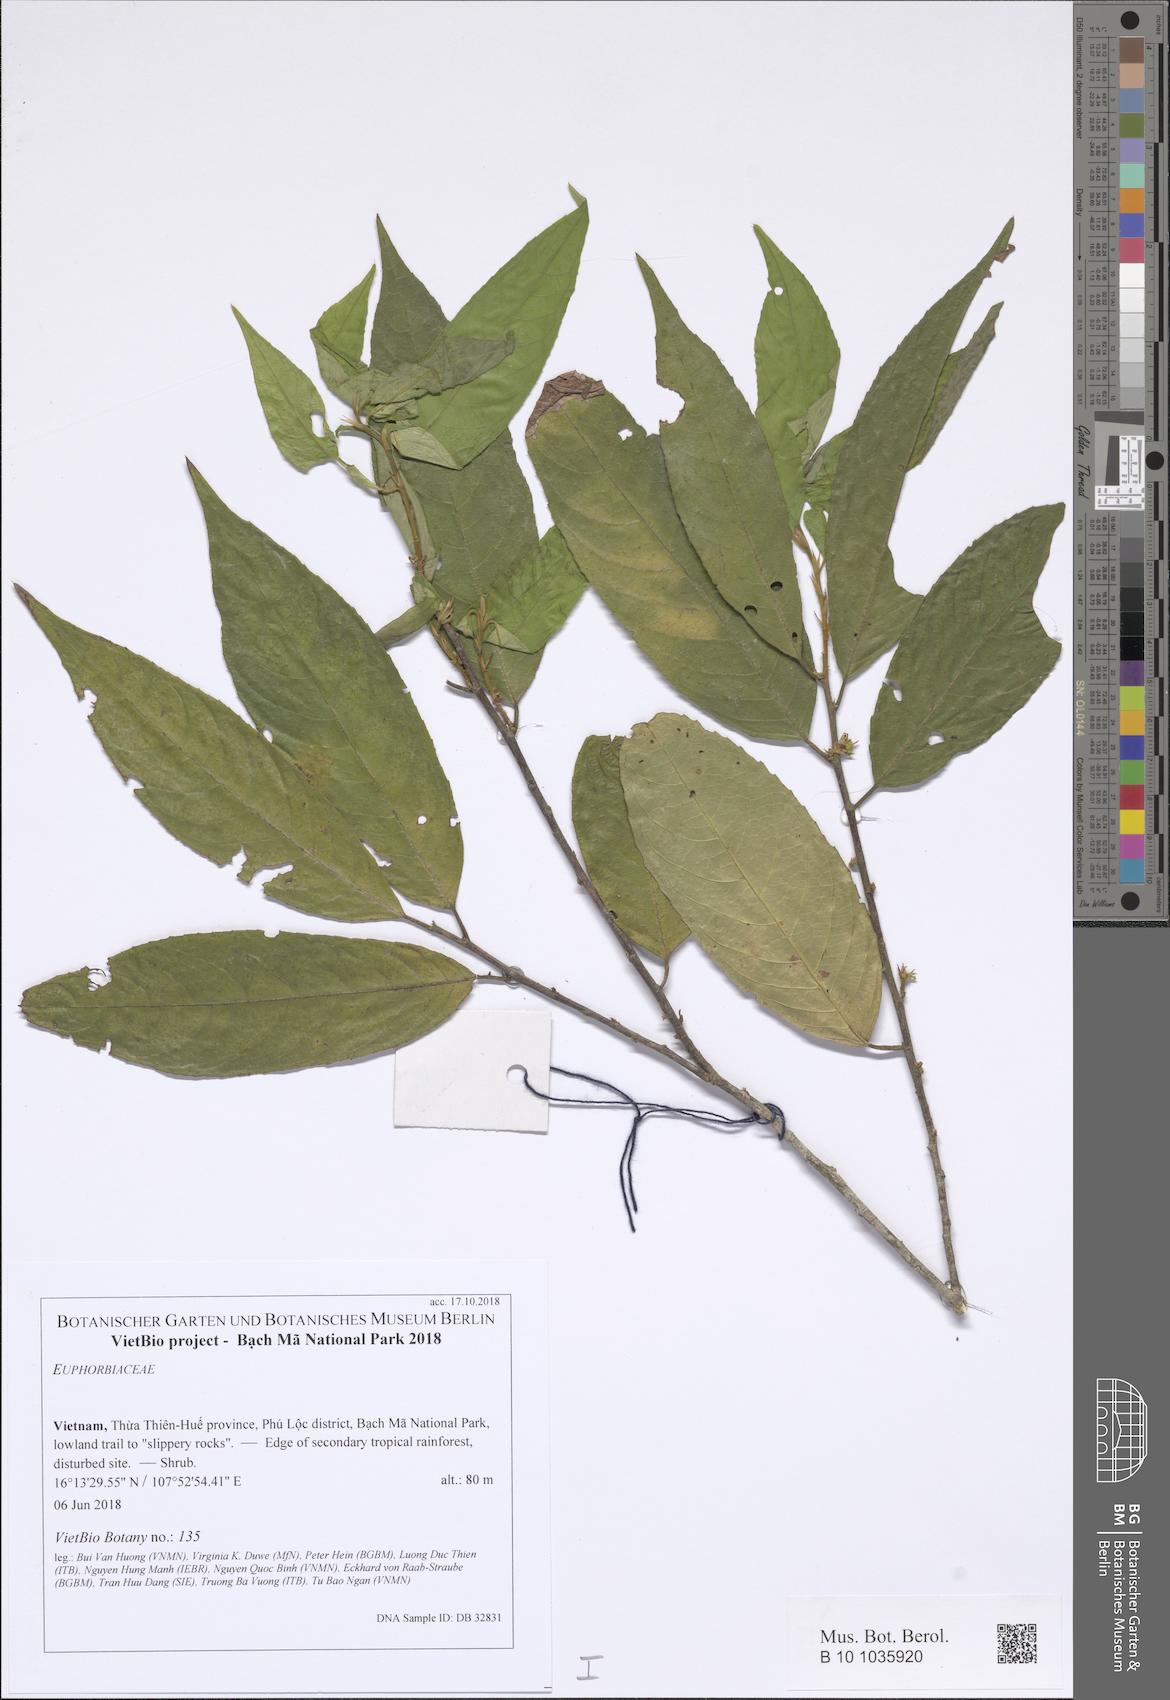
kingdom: Plantae
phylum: Tracheophyta
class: Magnoliopsida
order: Malpighiales
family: Euphorbiaceae
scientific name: Euphorbiaceae
